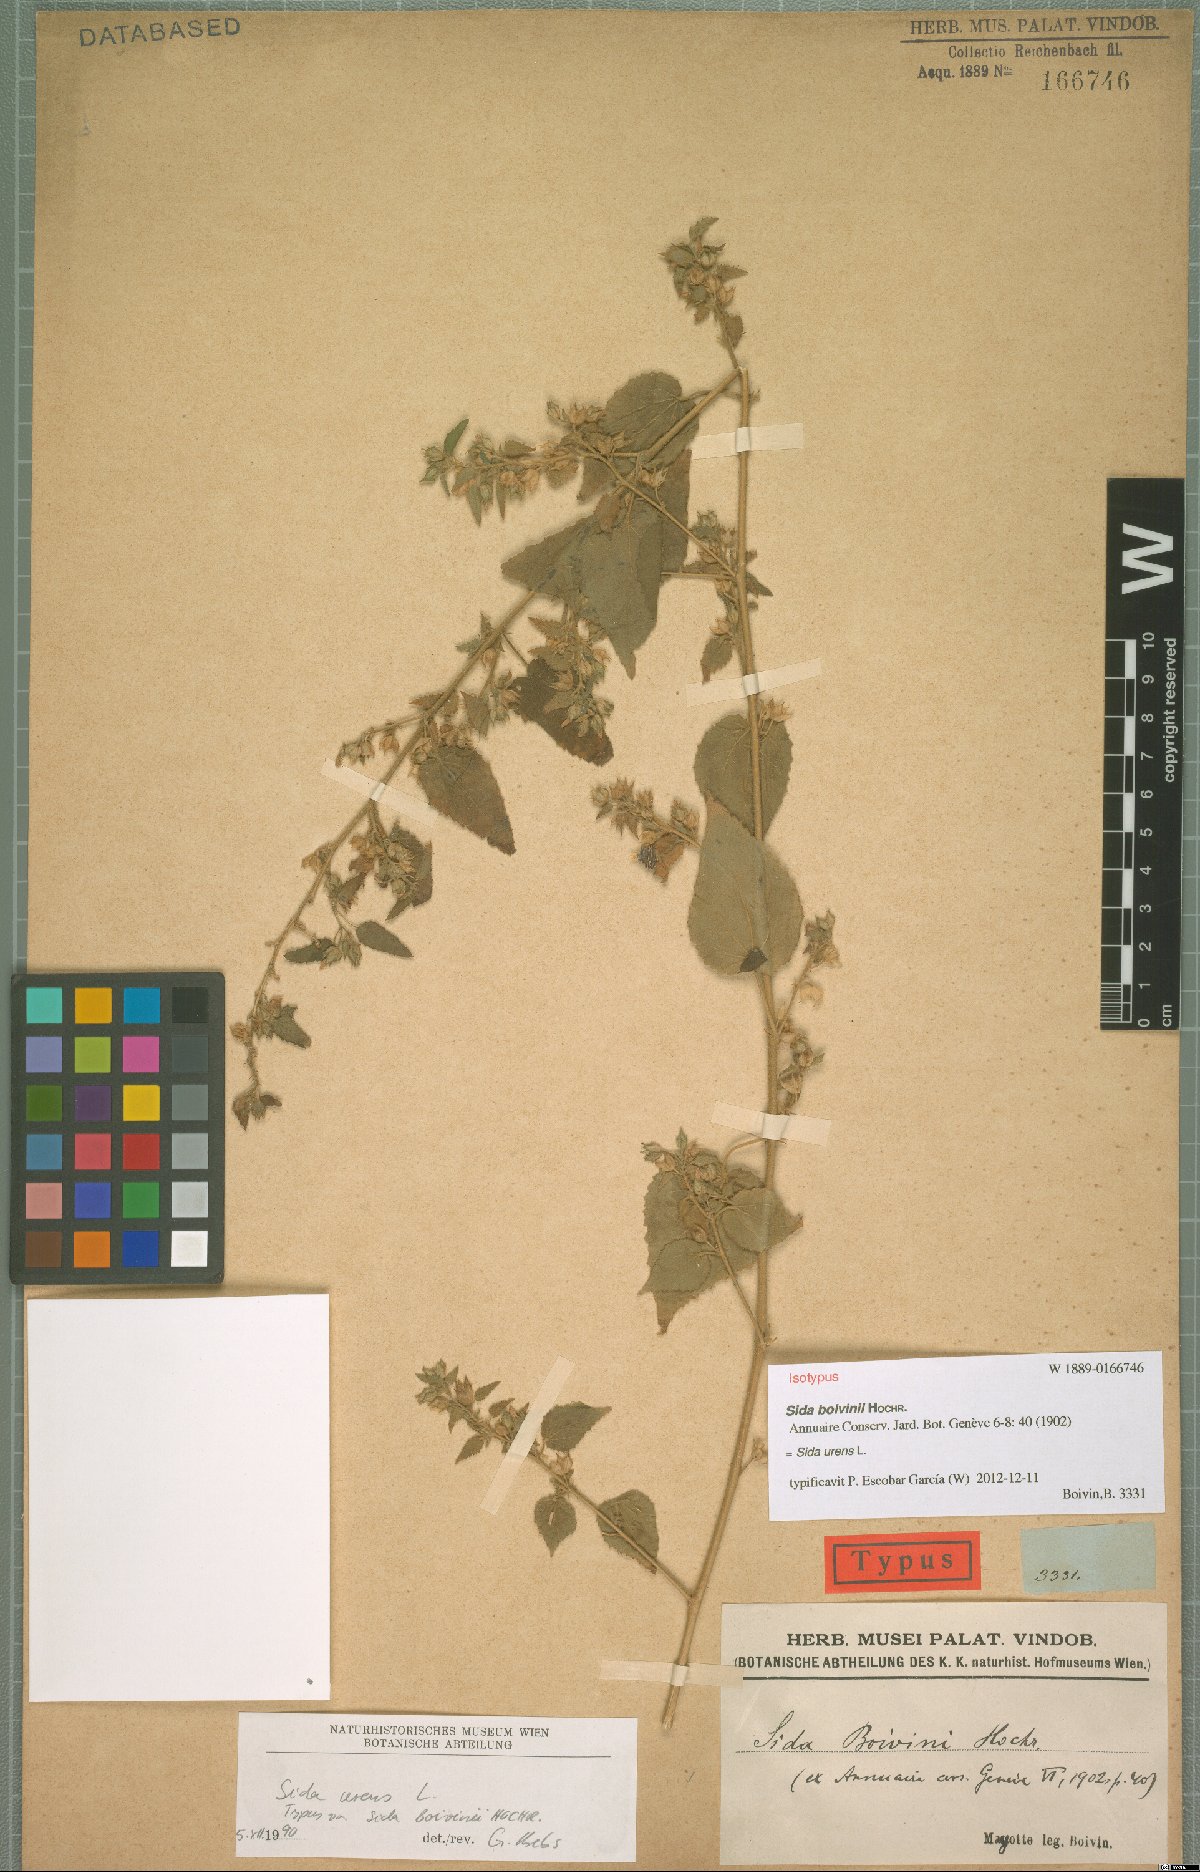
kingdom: Plantae
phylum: Tracheophyta
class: Magnoliopsida
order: Malvales
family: Malvaceae
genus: Sida
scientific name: Sida urens
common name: Tropical fanpetals
